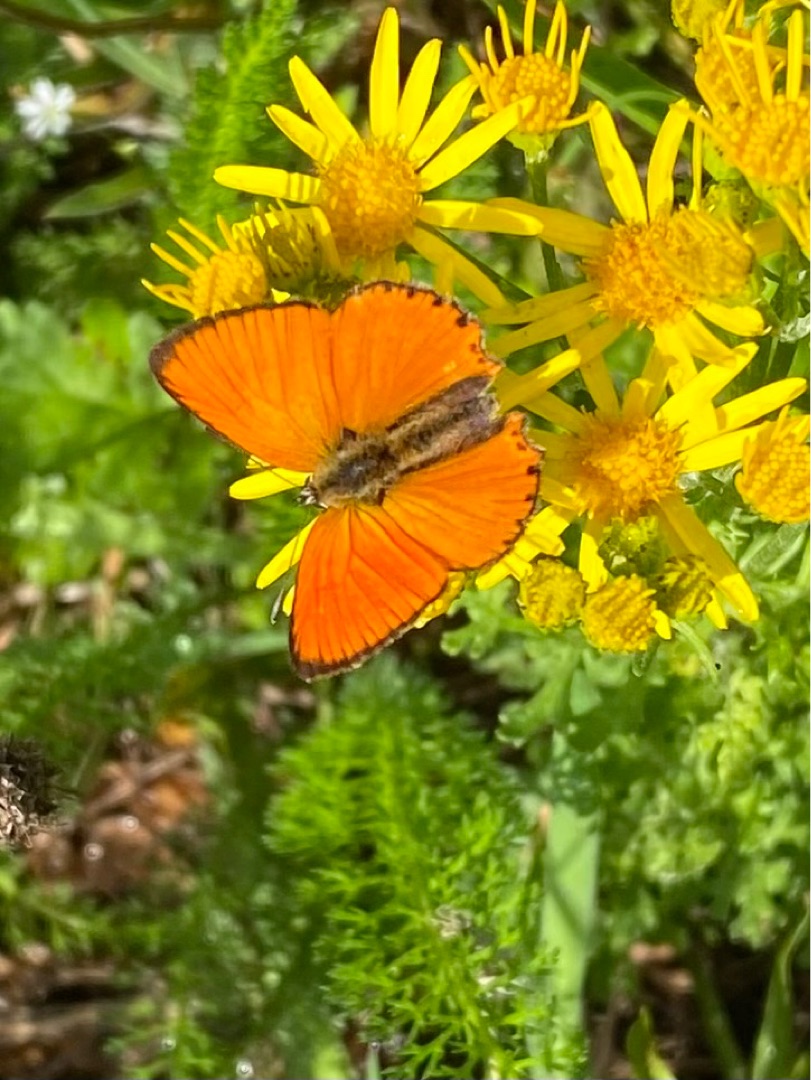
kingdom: Animalia
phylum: Arthropoda
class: Insecta
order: Lepidoptera
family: Lycaenidae
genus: Lycaena
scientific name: Lycaena virgaureae
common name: Dukatsommerfugl
